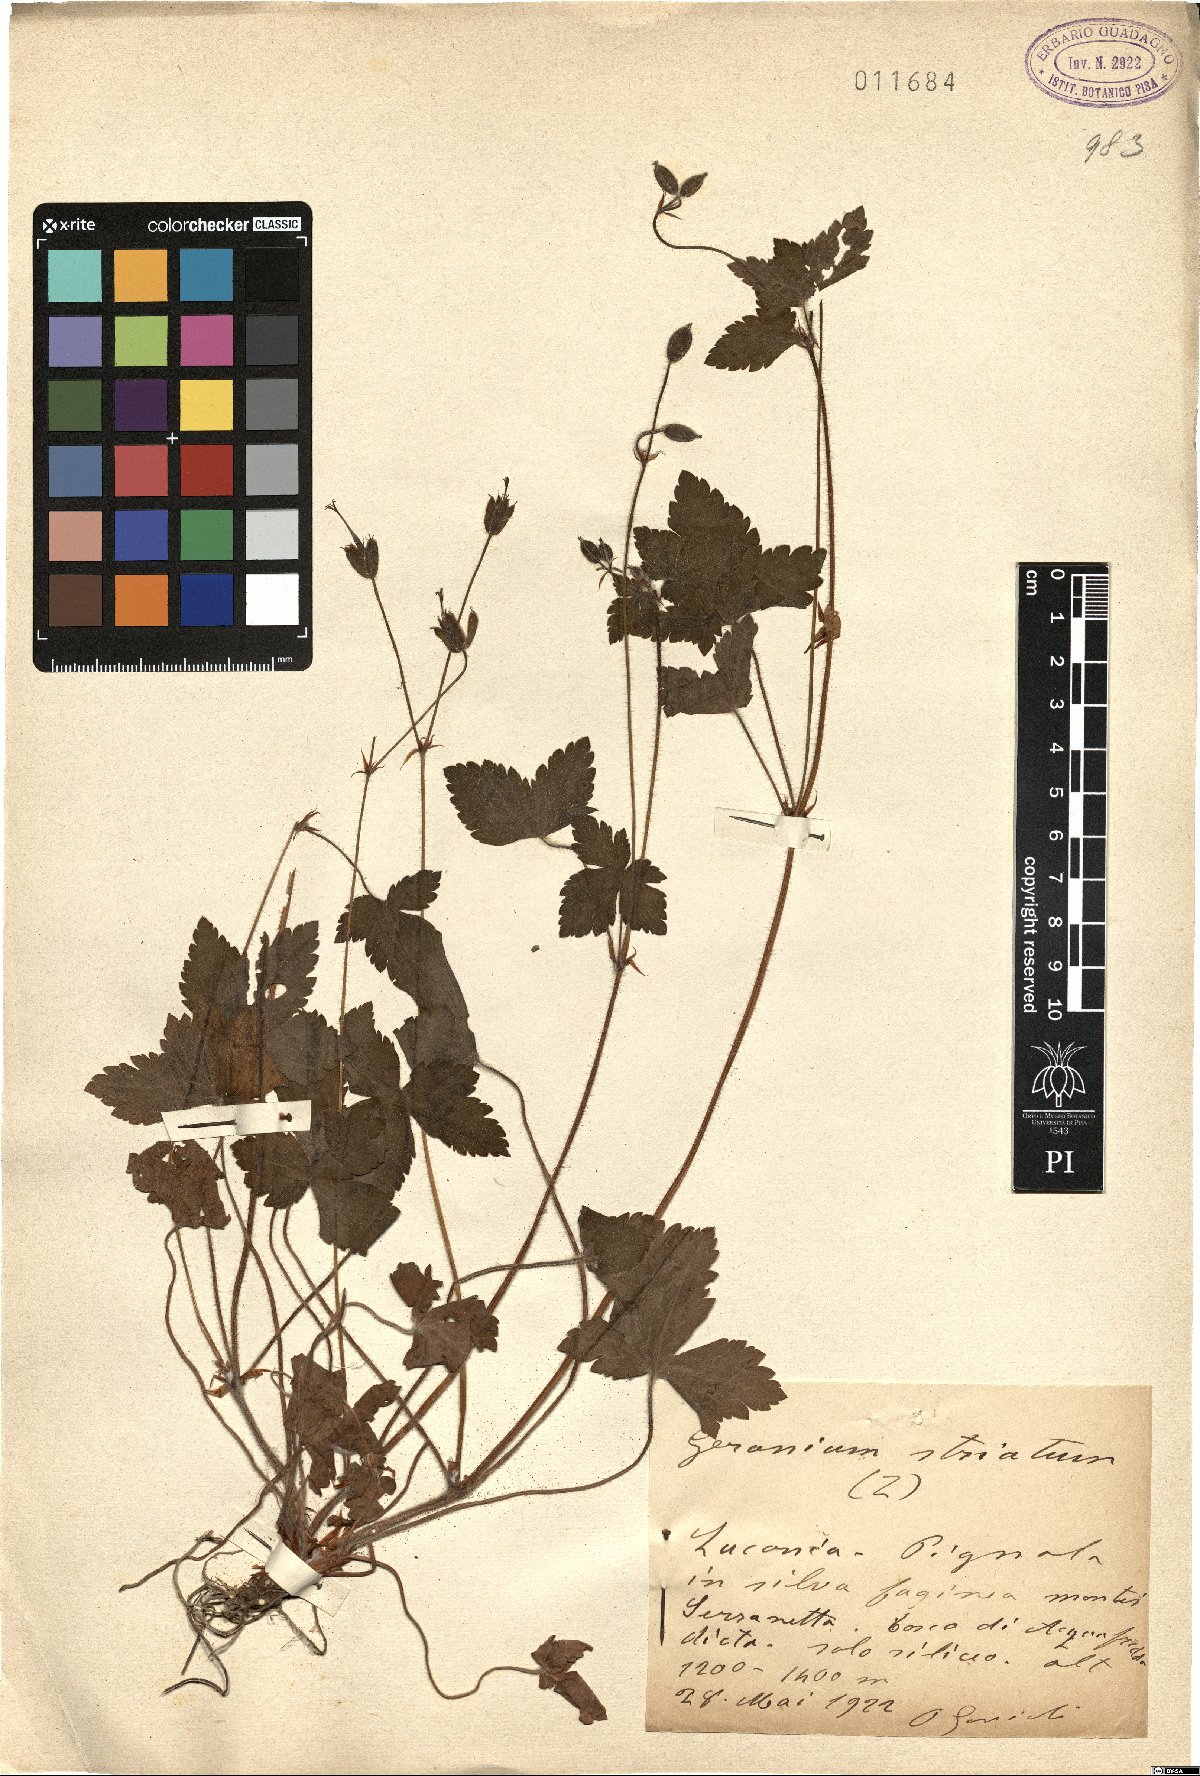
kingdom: Plantae
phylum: Tracheophyta
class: Magnoliopsida
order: Geraniales
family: Geraniaceae
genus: Geranium
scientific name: Geranium versicolor
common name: Pencilled crane's-bill
